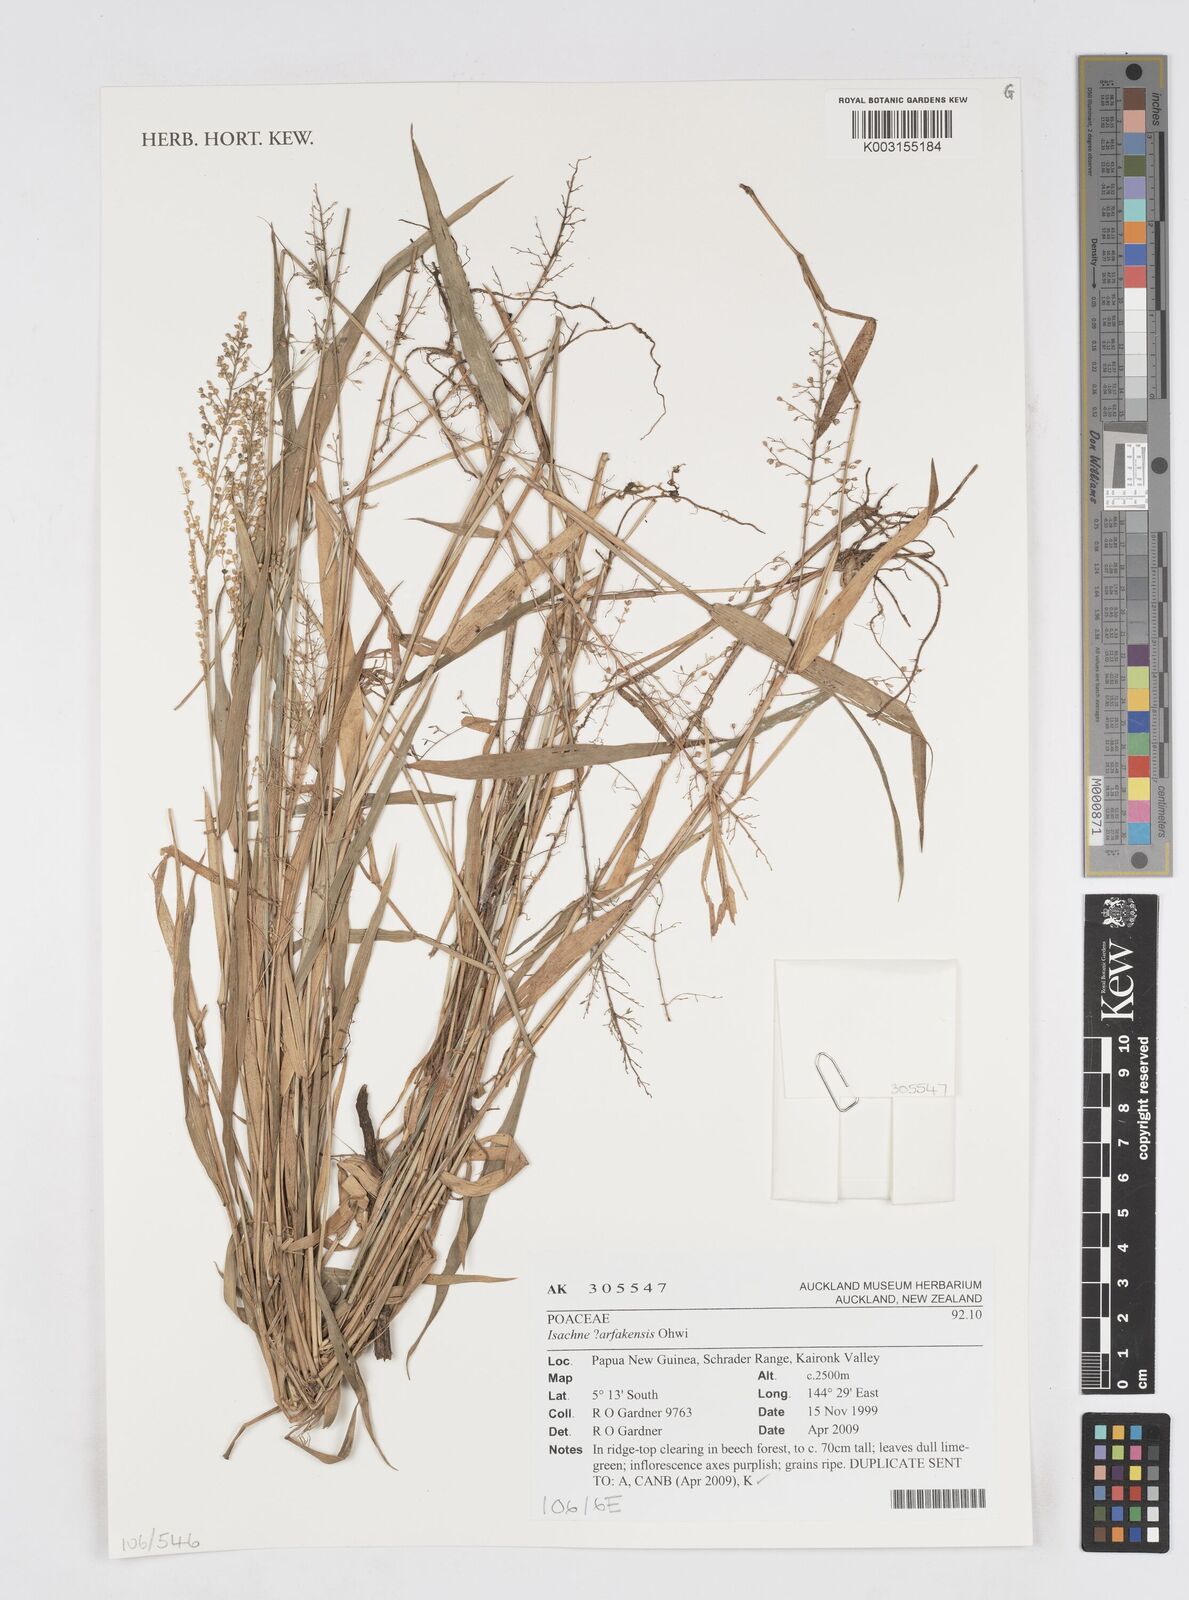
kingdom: Plantae
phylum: Tracheophyta
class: Liliopsida
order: Poales
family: Poaceae
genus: Isachne
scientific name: Isachne arfakensis
